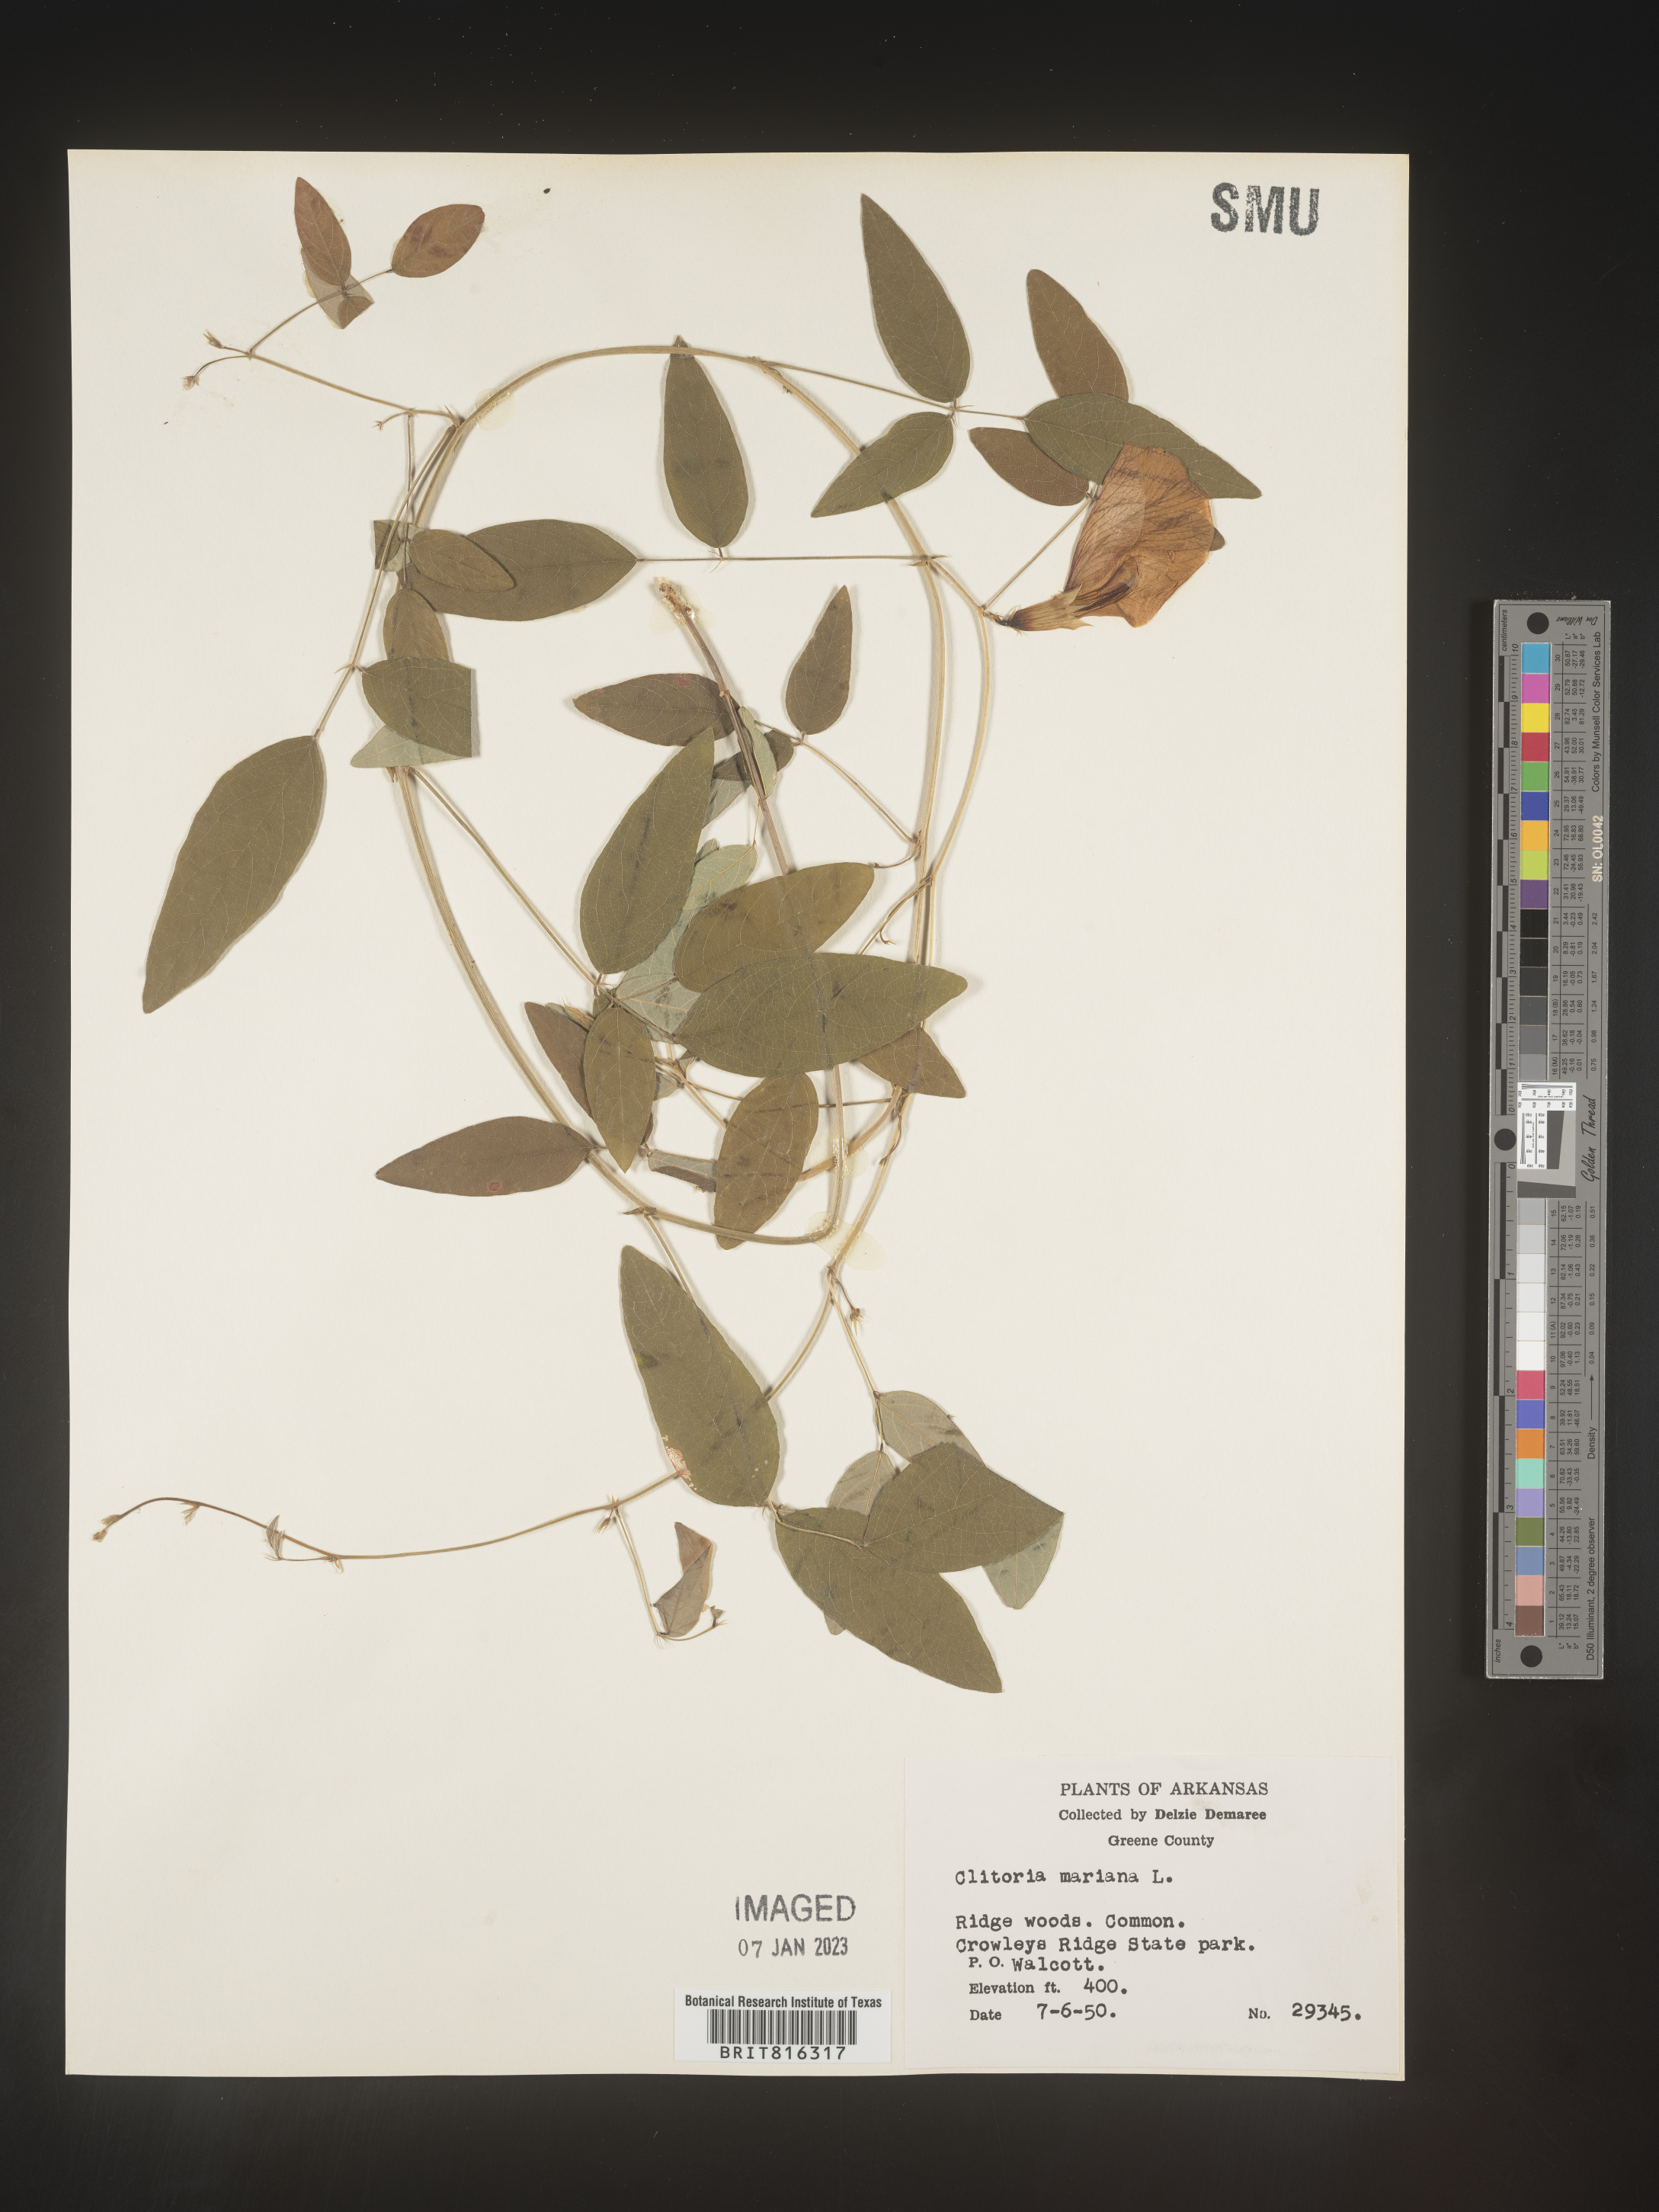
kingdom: Plantae
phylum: Tracheophyta
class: Magnoliopsida
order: Fabales
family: Fabaceae
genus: Clitoria
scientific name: Clitoria mariana
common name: Butterfly-pea
